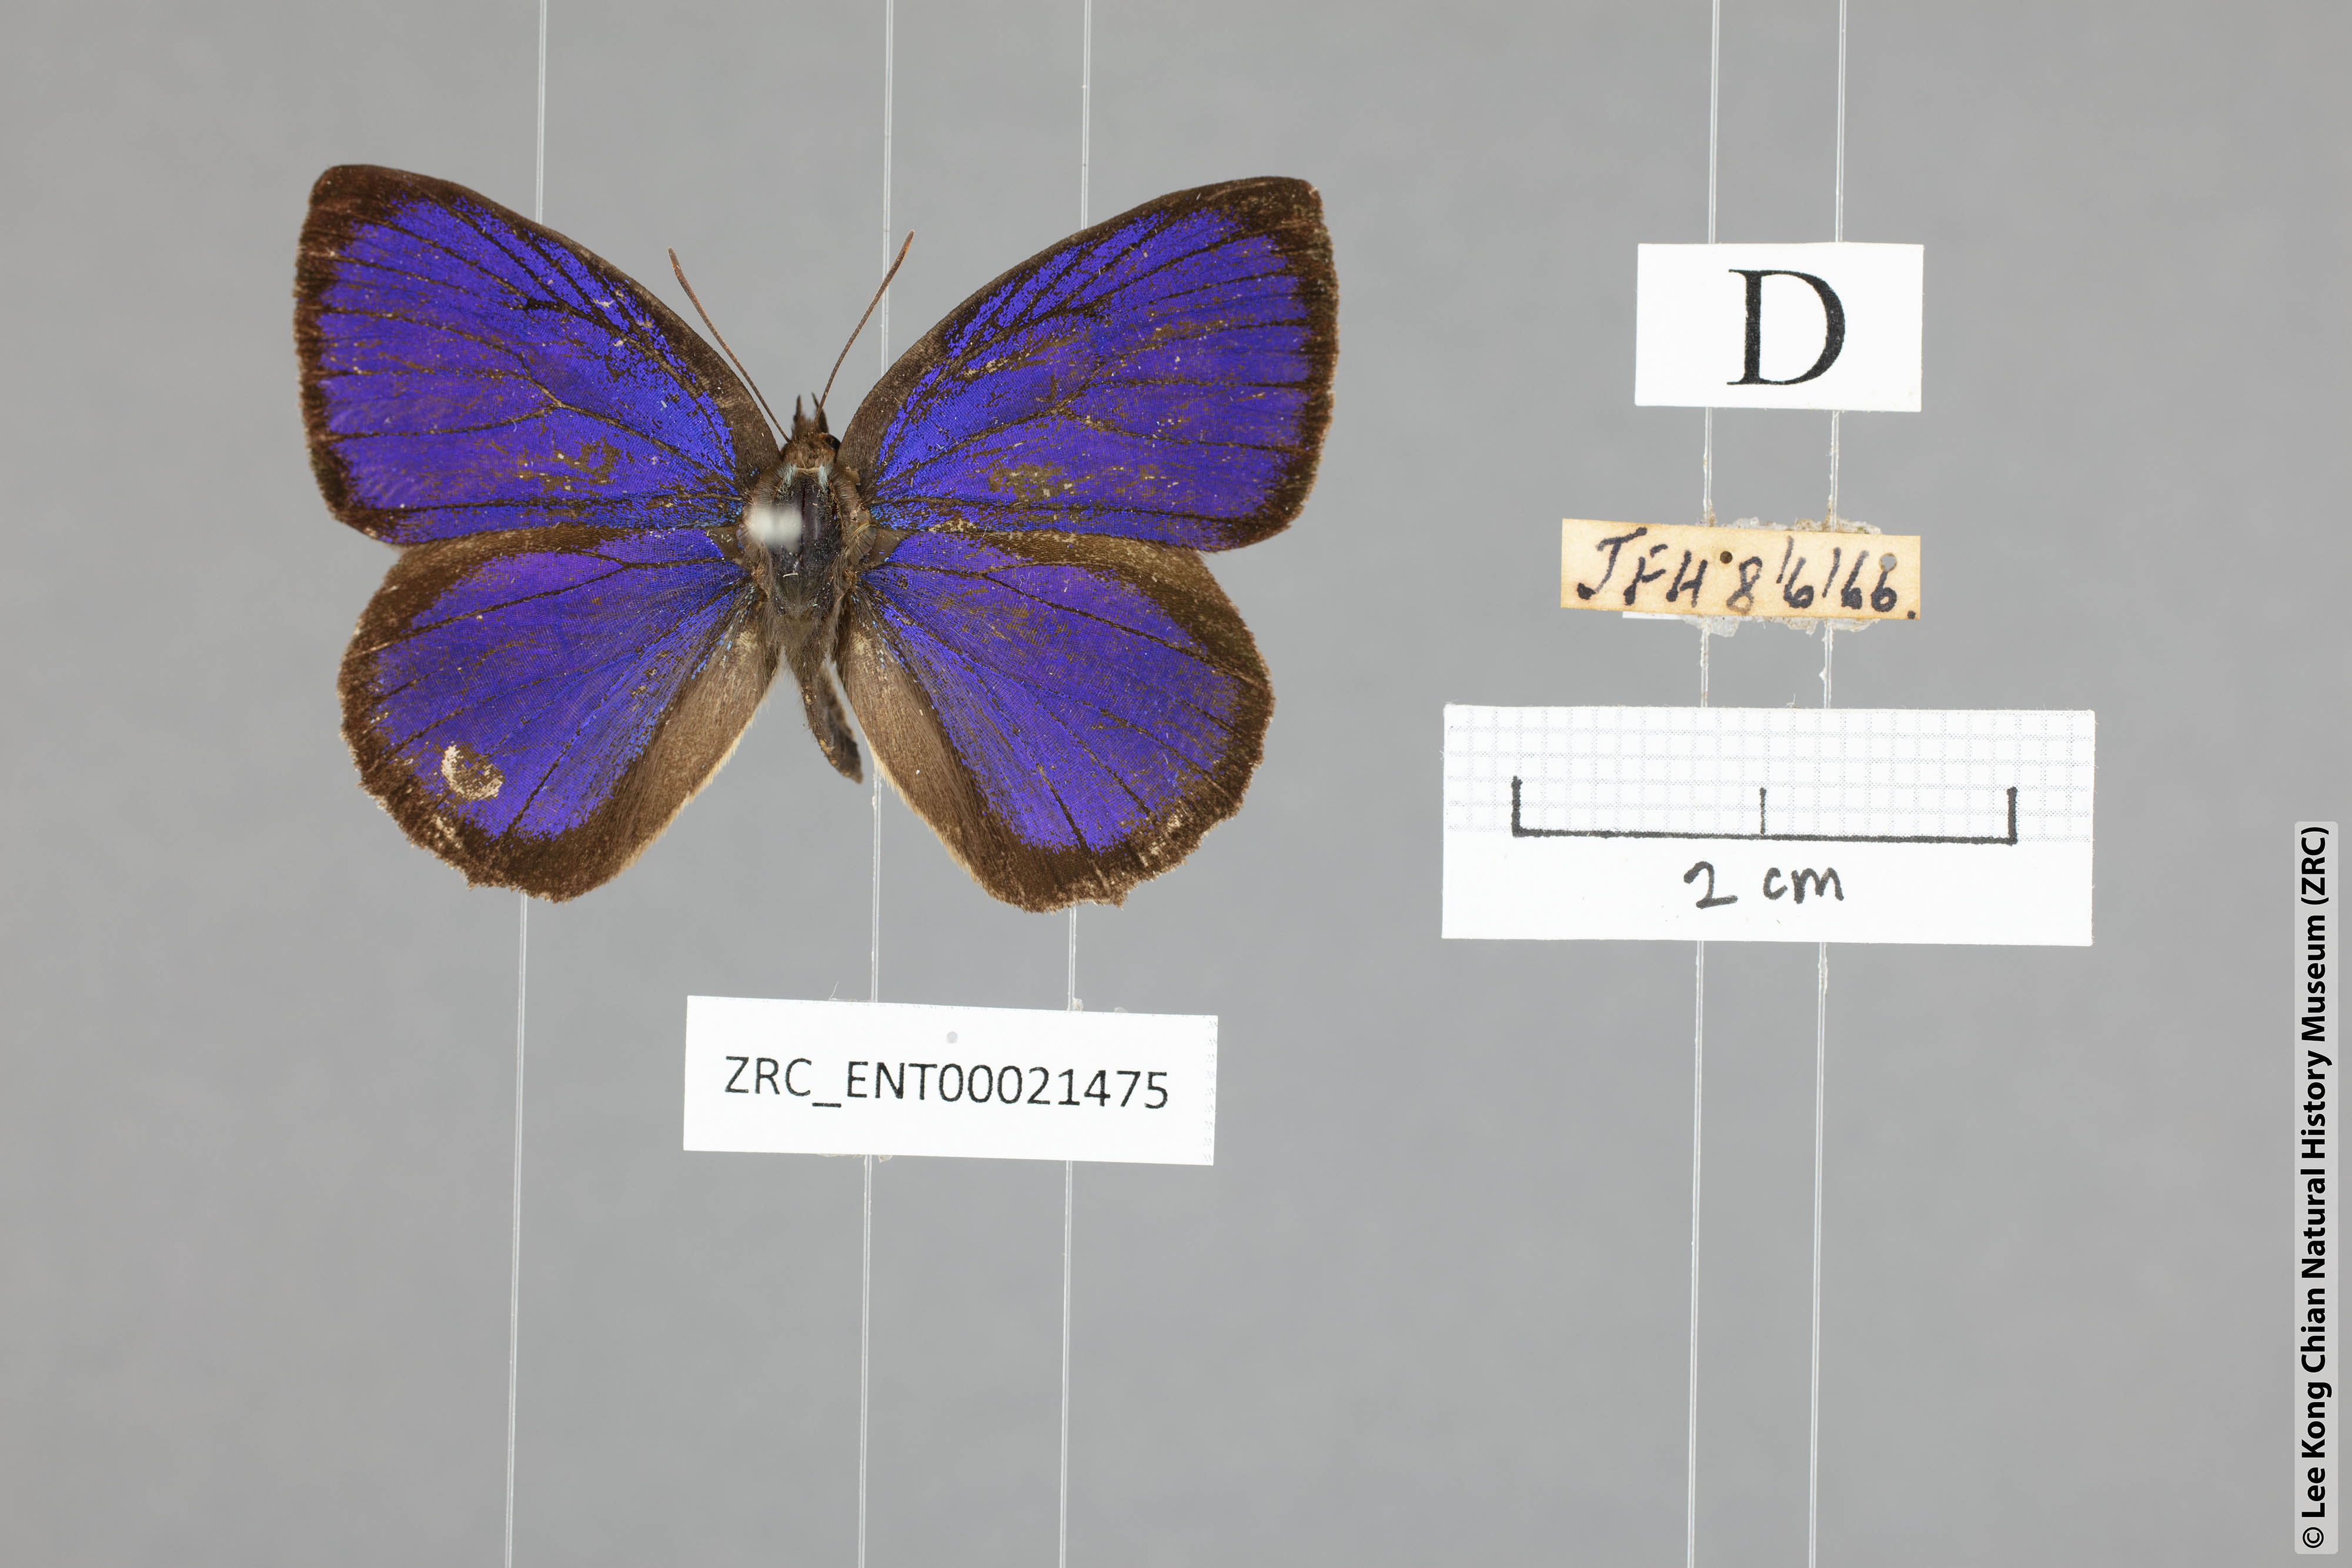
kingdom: Animalia
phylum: Arthropoda
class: Insecta
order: Lepidoptera
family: Lycaenidae
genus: Flos
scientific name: Flos
